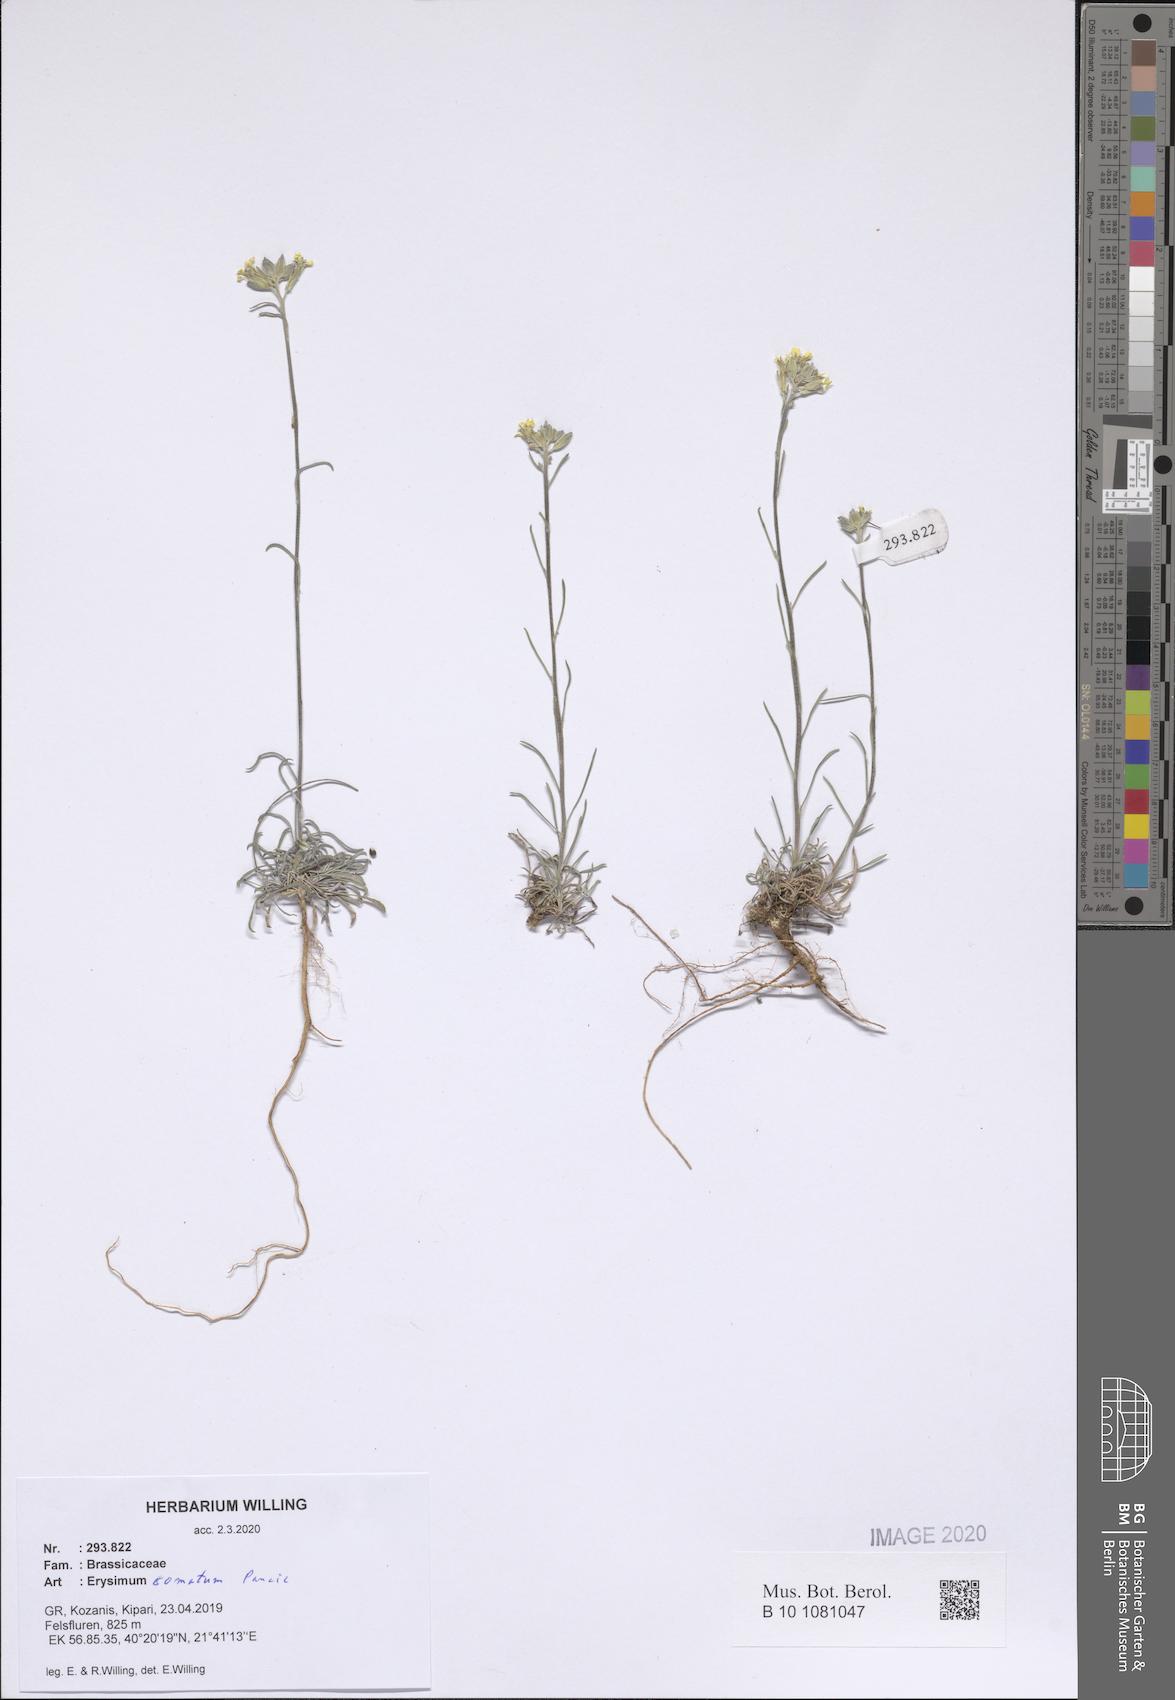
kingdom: Plantae
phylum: Tracheophyta
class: Magnoliopsida
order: Brassicales
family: Brassicaceae
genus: Erysimum
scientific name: Erysimum comatum
